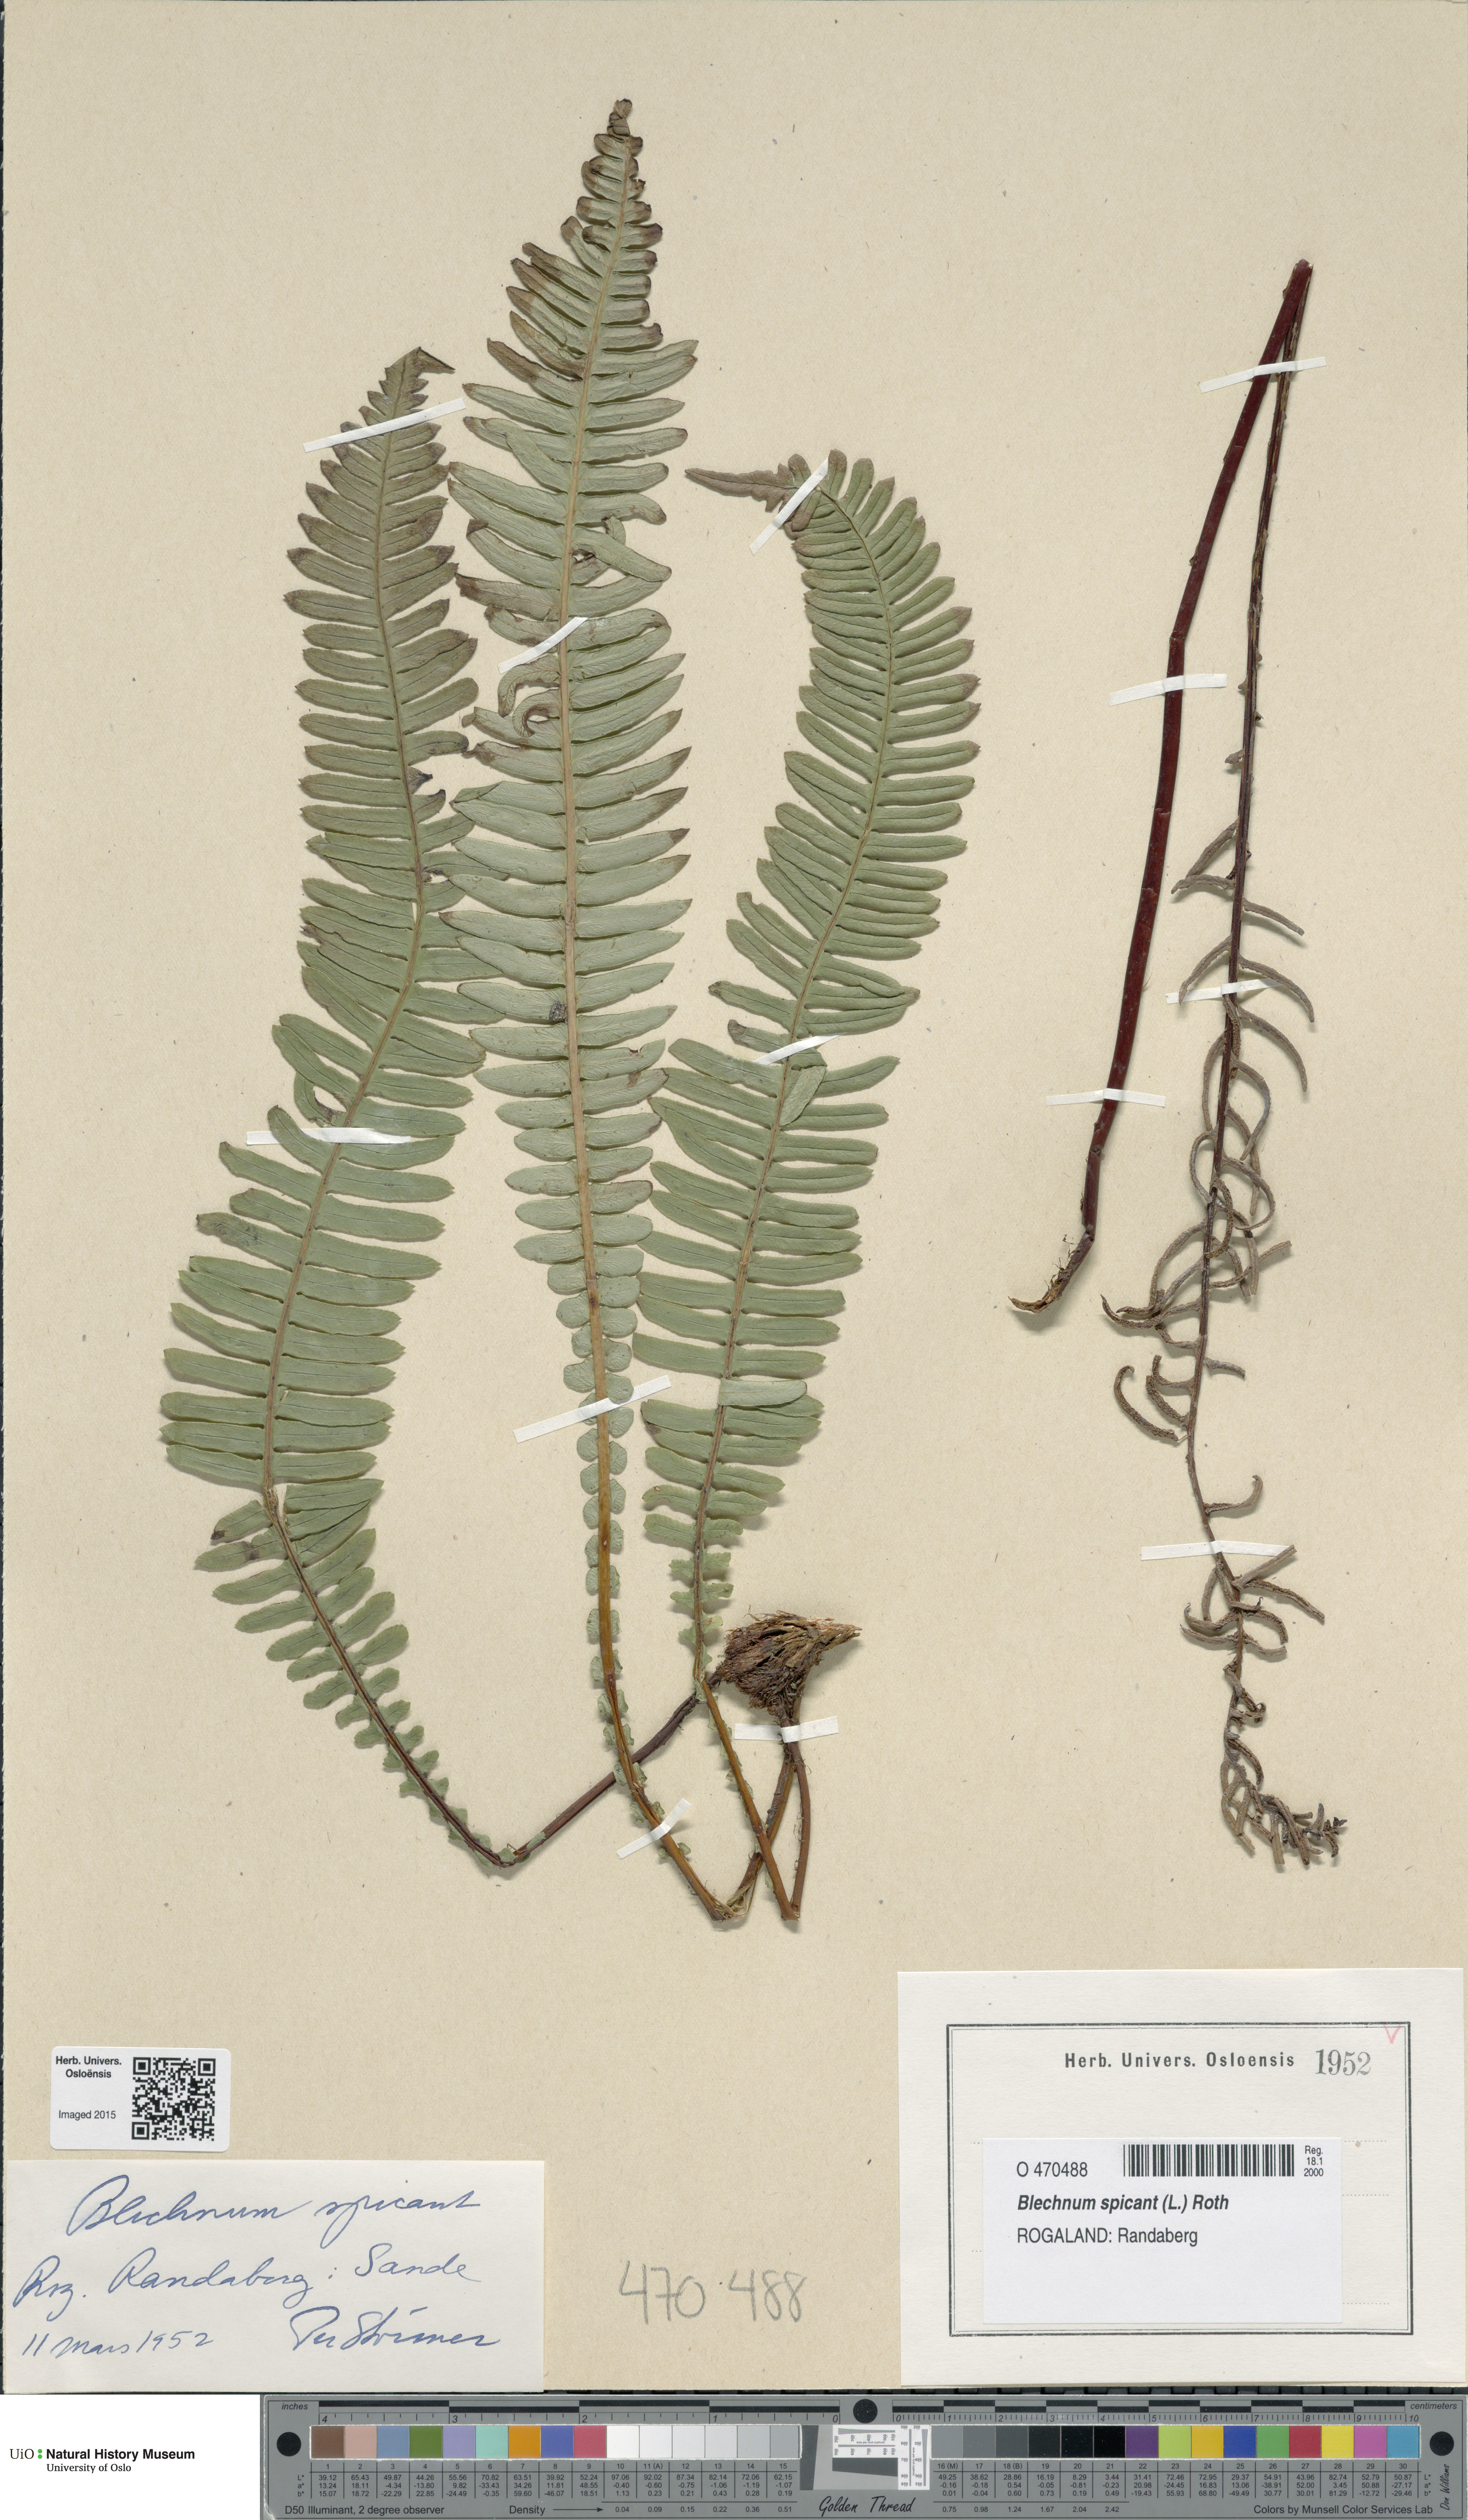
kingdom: Plantae
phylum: Tracheophyta
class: Polypodiopsida
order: Polypodiales
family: Blechnaceae
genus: Struthiopteris
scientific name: Struthiopteris spicant
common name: Deer fern
